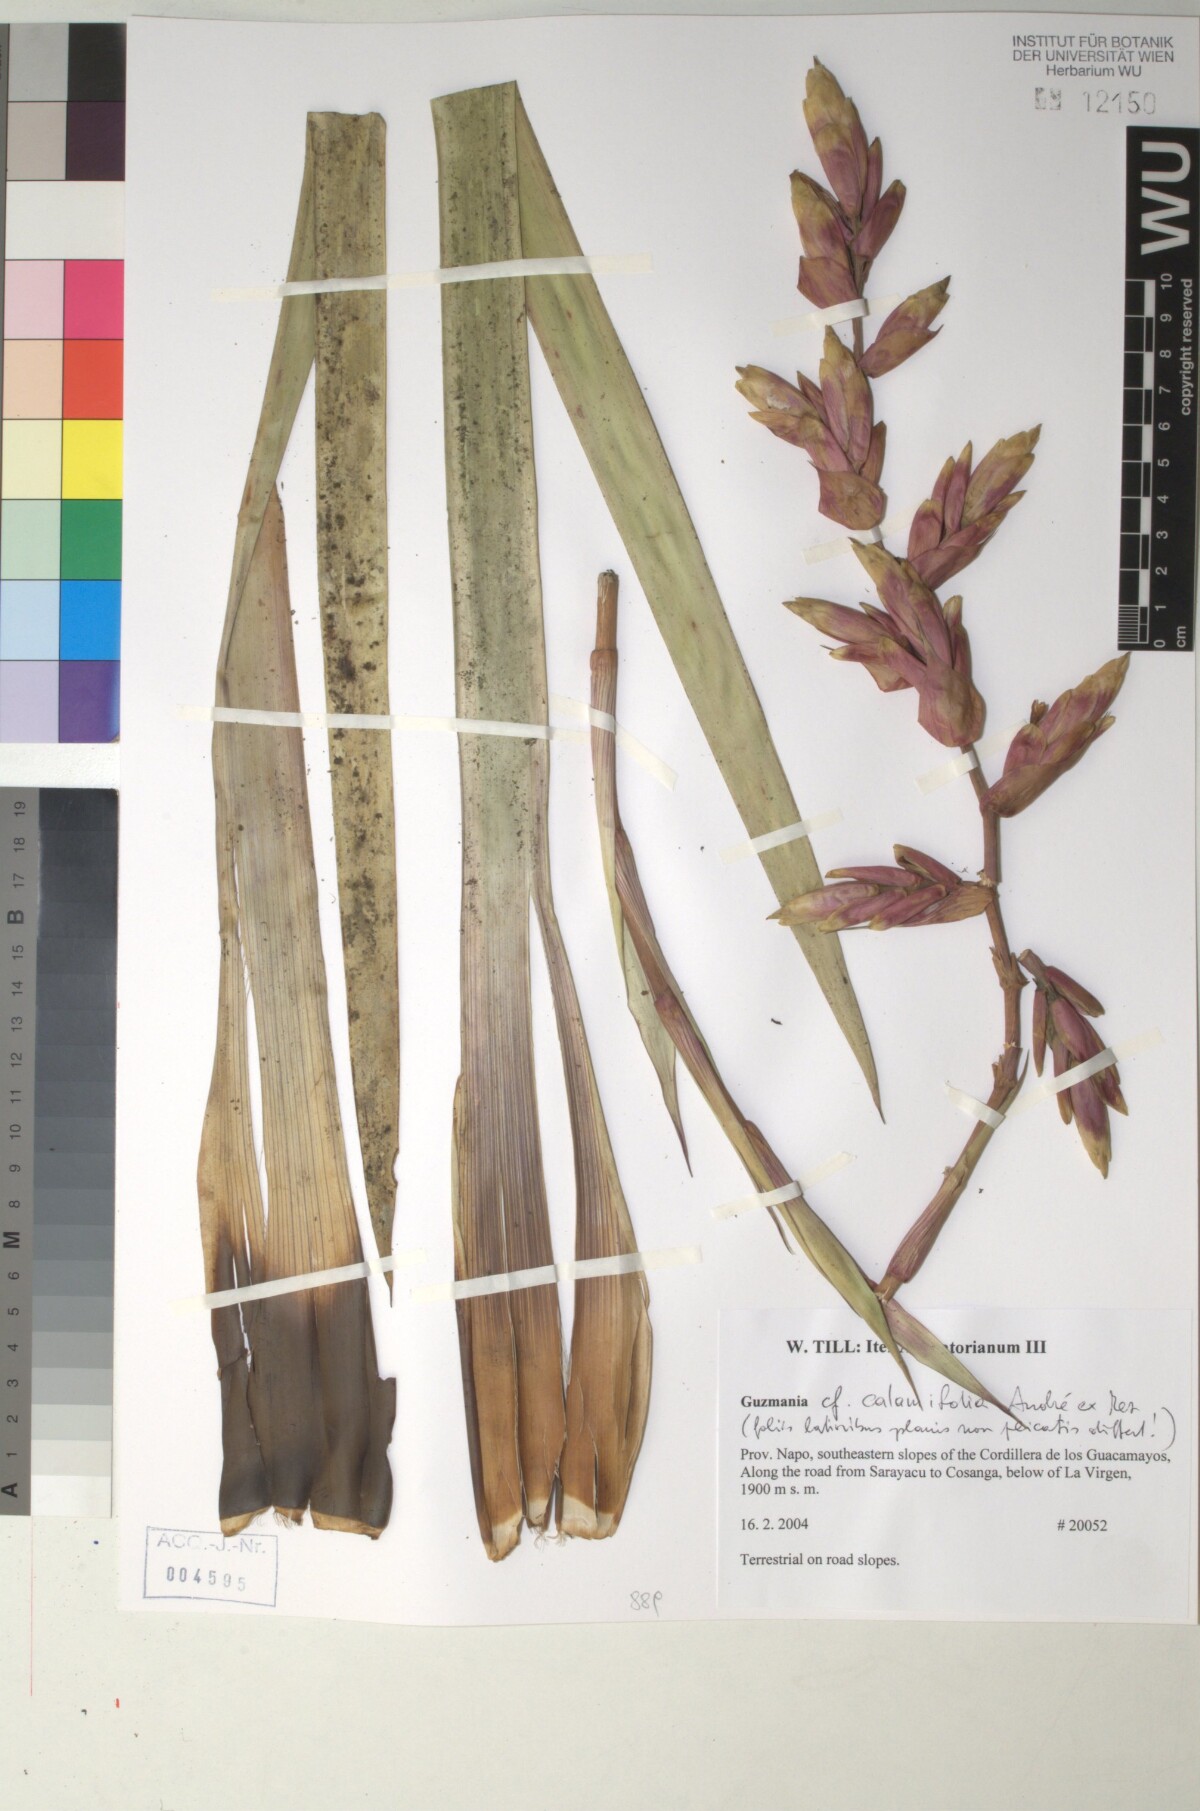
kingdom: Plantae
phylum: Tracheophyta
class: Liliopsida
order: Poales
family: Bromeliaceae
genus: Guzmania
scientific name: Guzmania calamifolia
